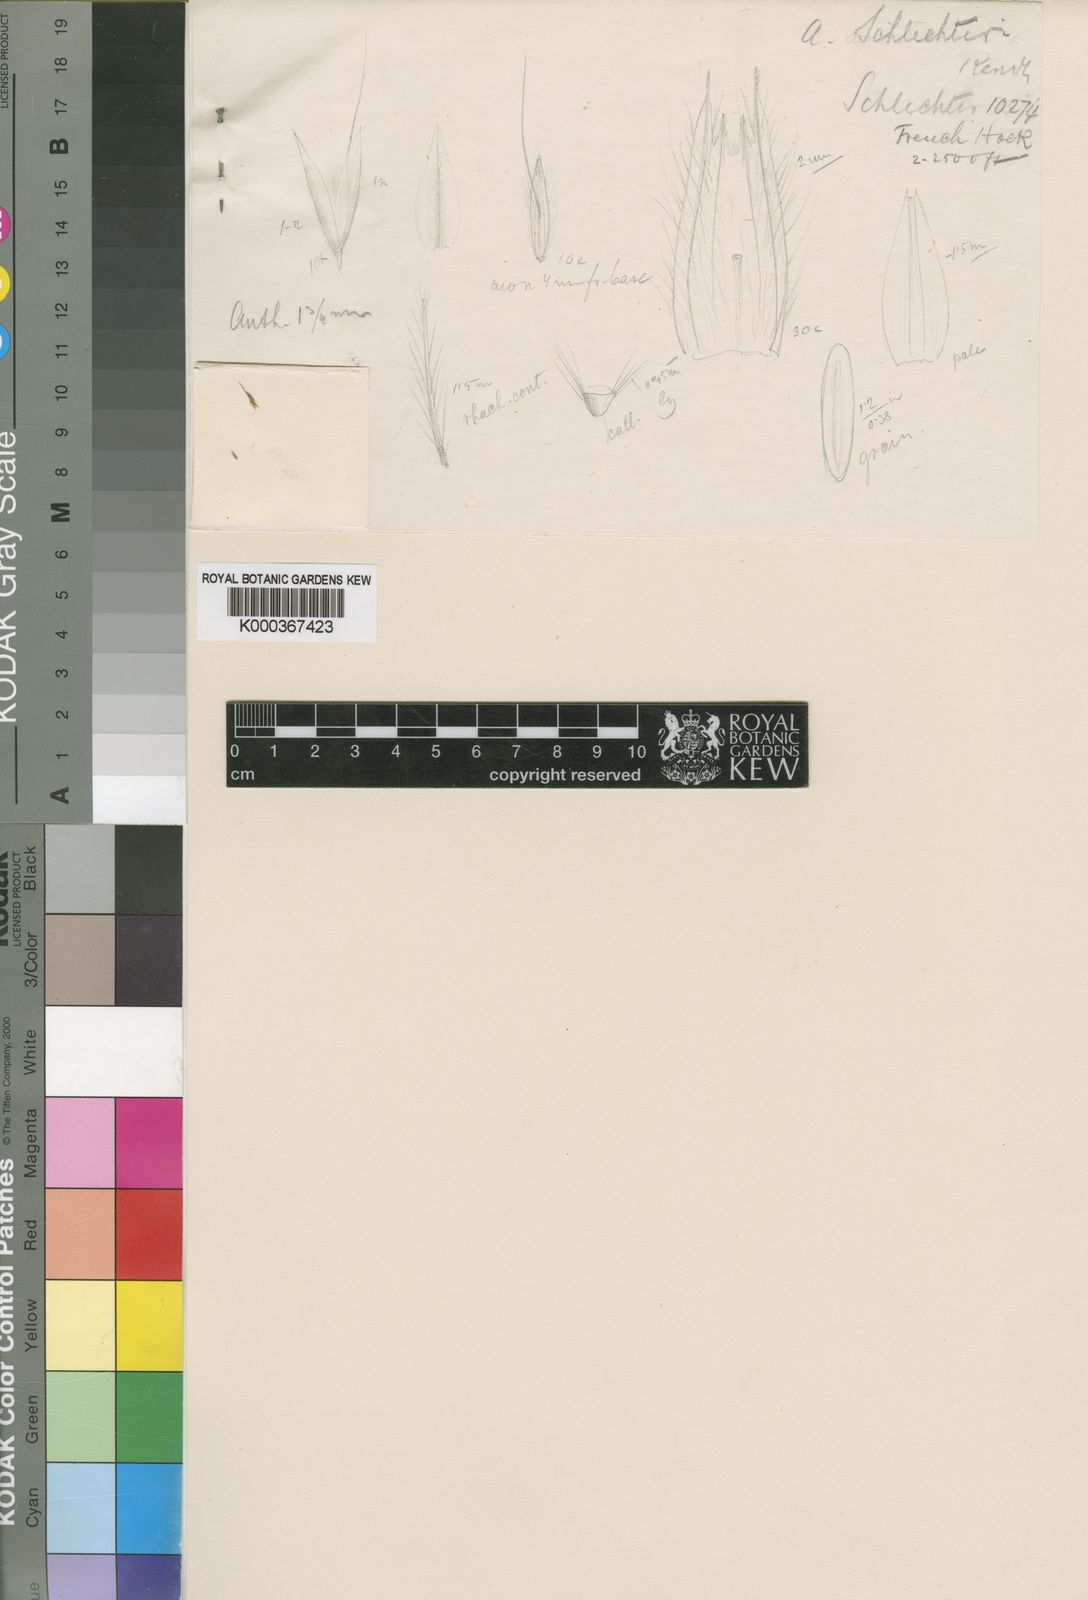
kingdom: Plantae
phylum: Tracheophyta
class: Liliopsida
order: Poales
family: Poaceae
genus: Lachnagrostis
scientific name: Lachnagrostis schlechteri
